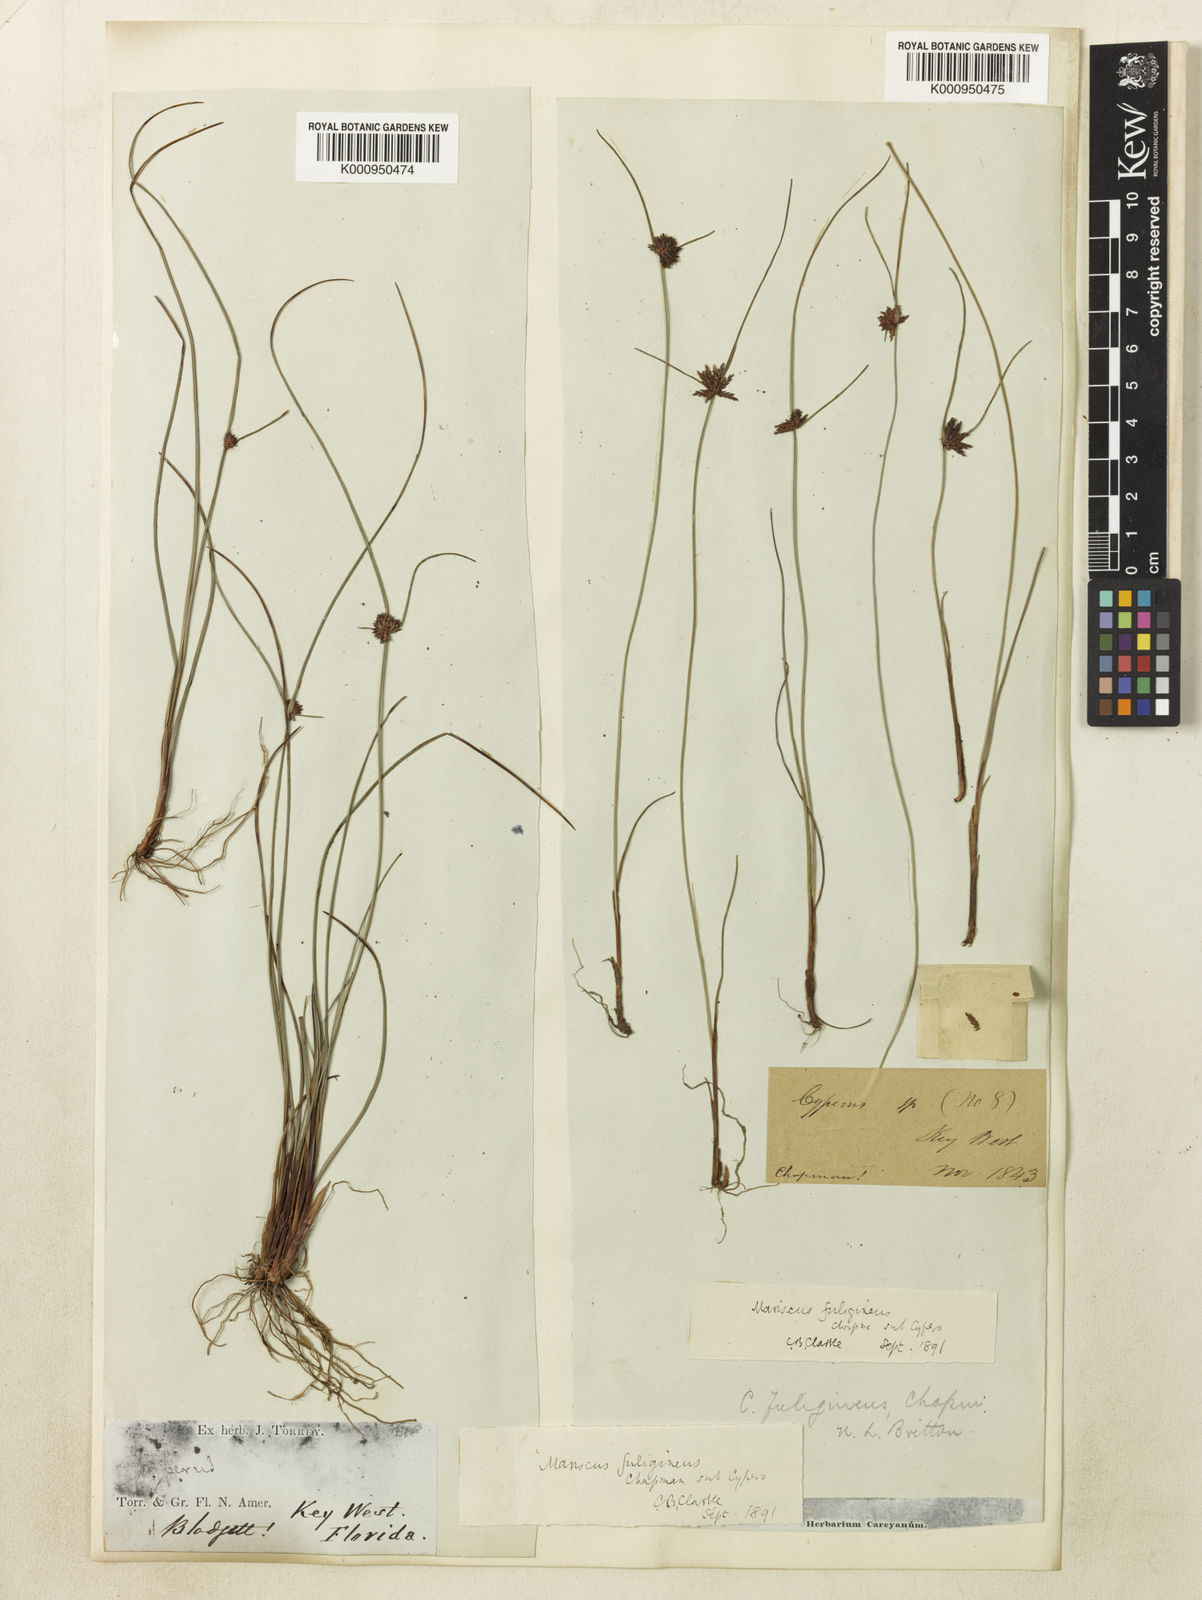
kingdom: Plantae
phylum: Tracheophyta
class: Liliopsida
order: Poales
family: Cyperaceae
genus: Cyperus
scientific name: Cyperus fuligineus
